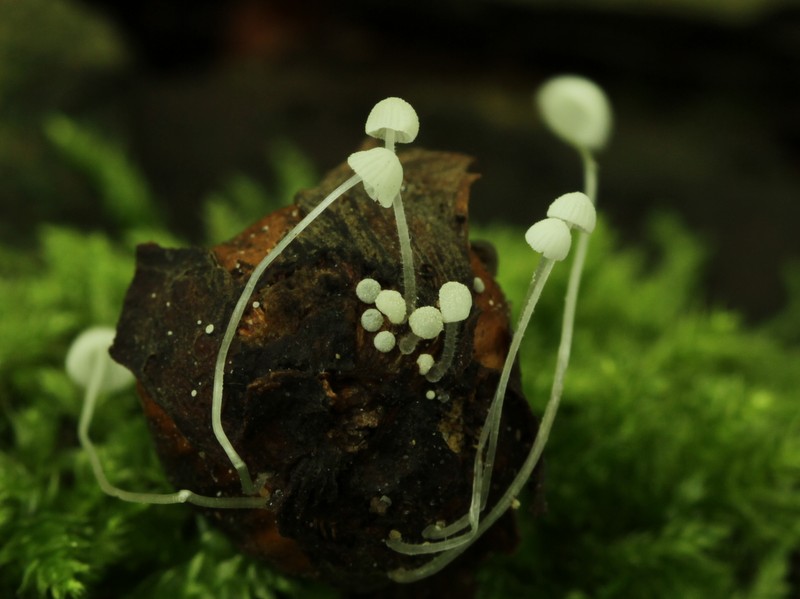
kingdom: Fungi
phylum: Basidiomycota
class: Agaricomycetes
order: Agaricales
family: Mycenaceae
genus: Mycena
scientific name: Mycena nucicola
